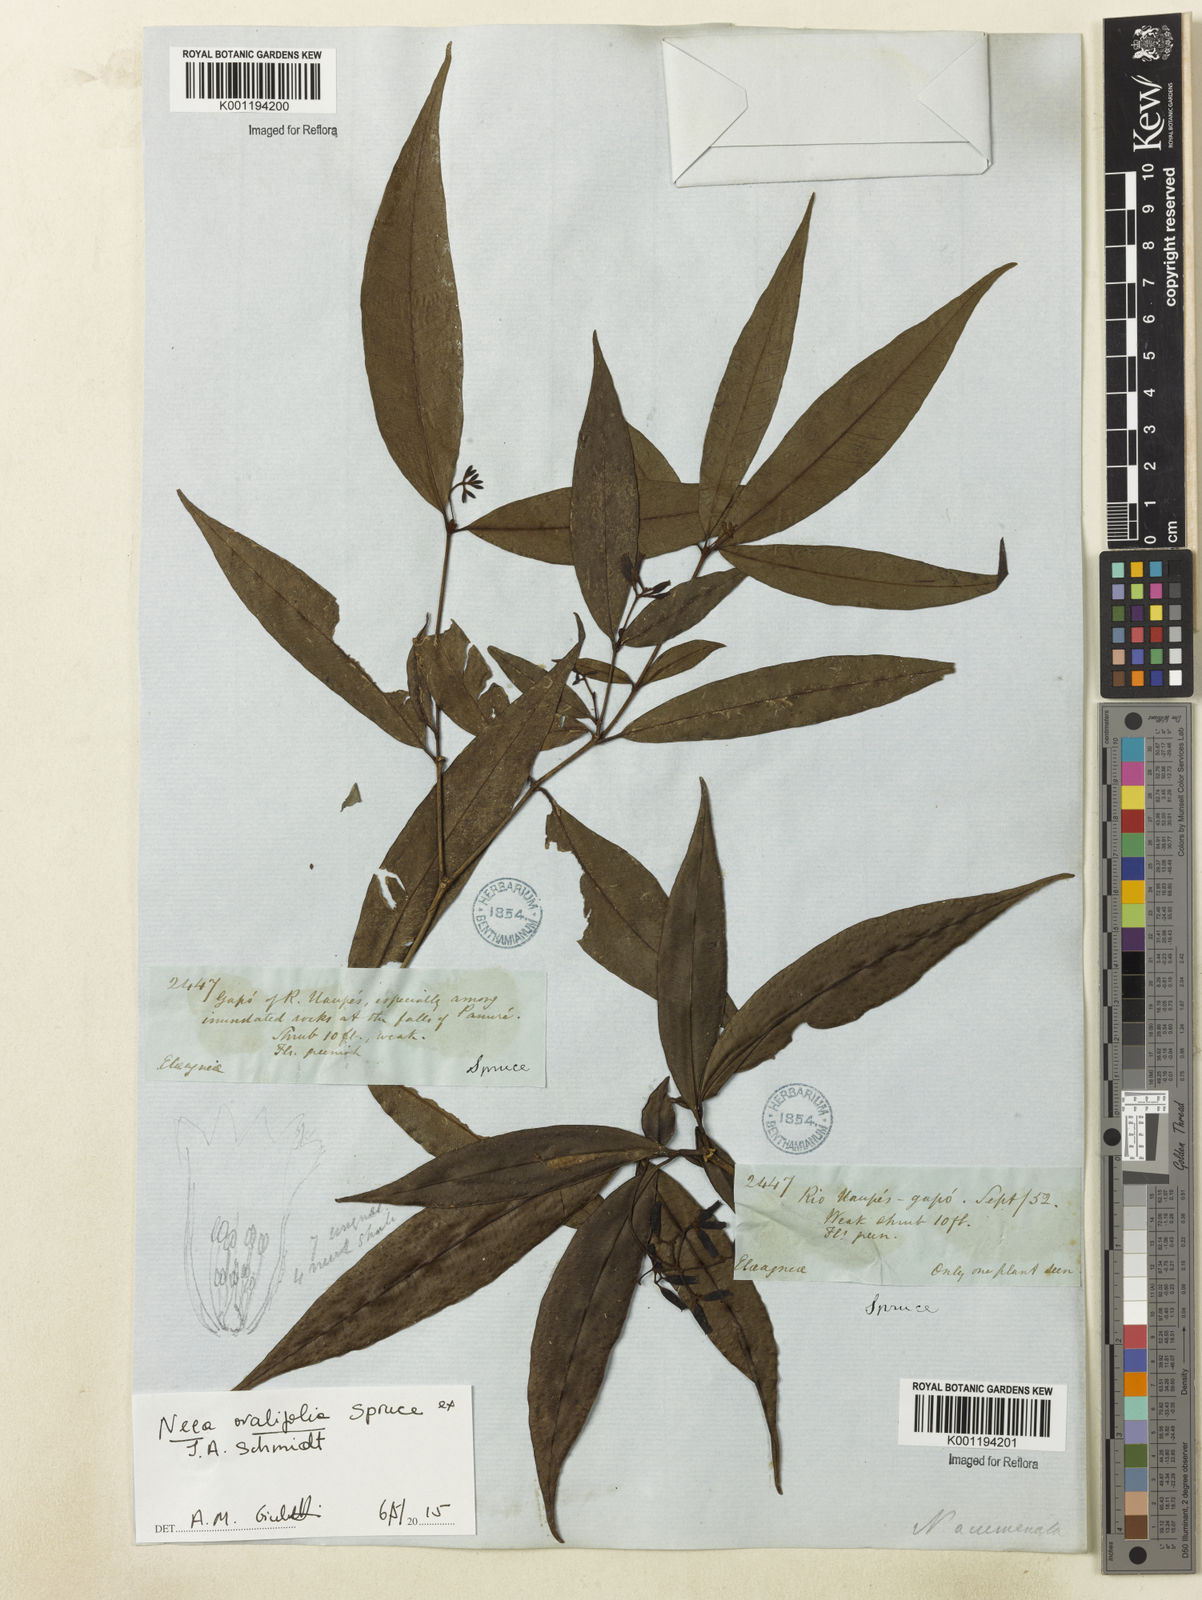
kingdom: Plantae
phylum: Tracheophyta
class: Magnoliopsida
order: Caryophyllales
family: Nyctaginaceae
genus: Neea
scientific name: Neea ovalifolia
